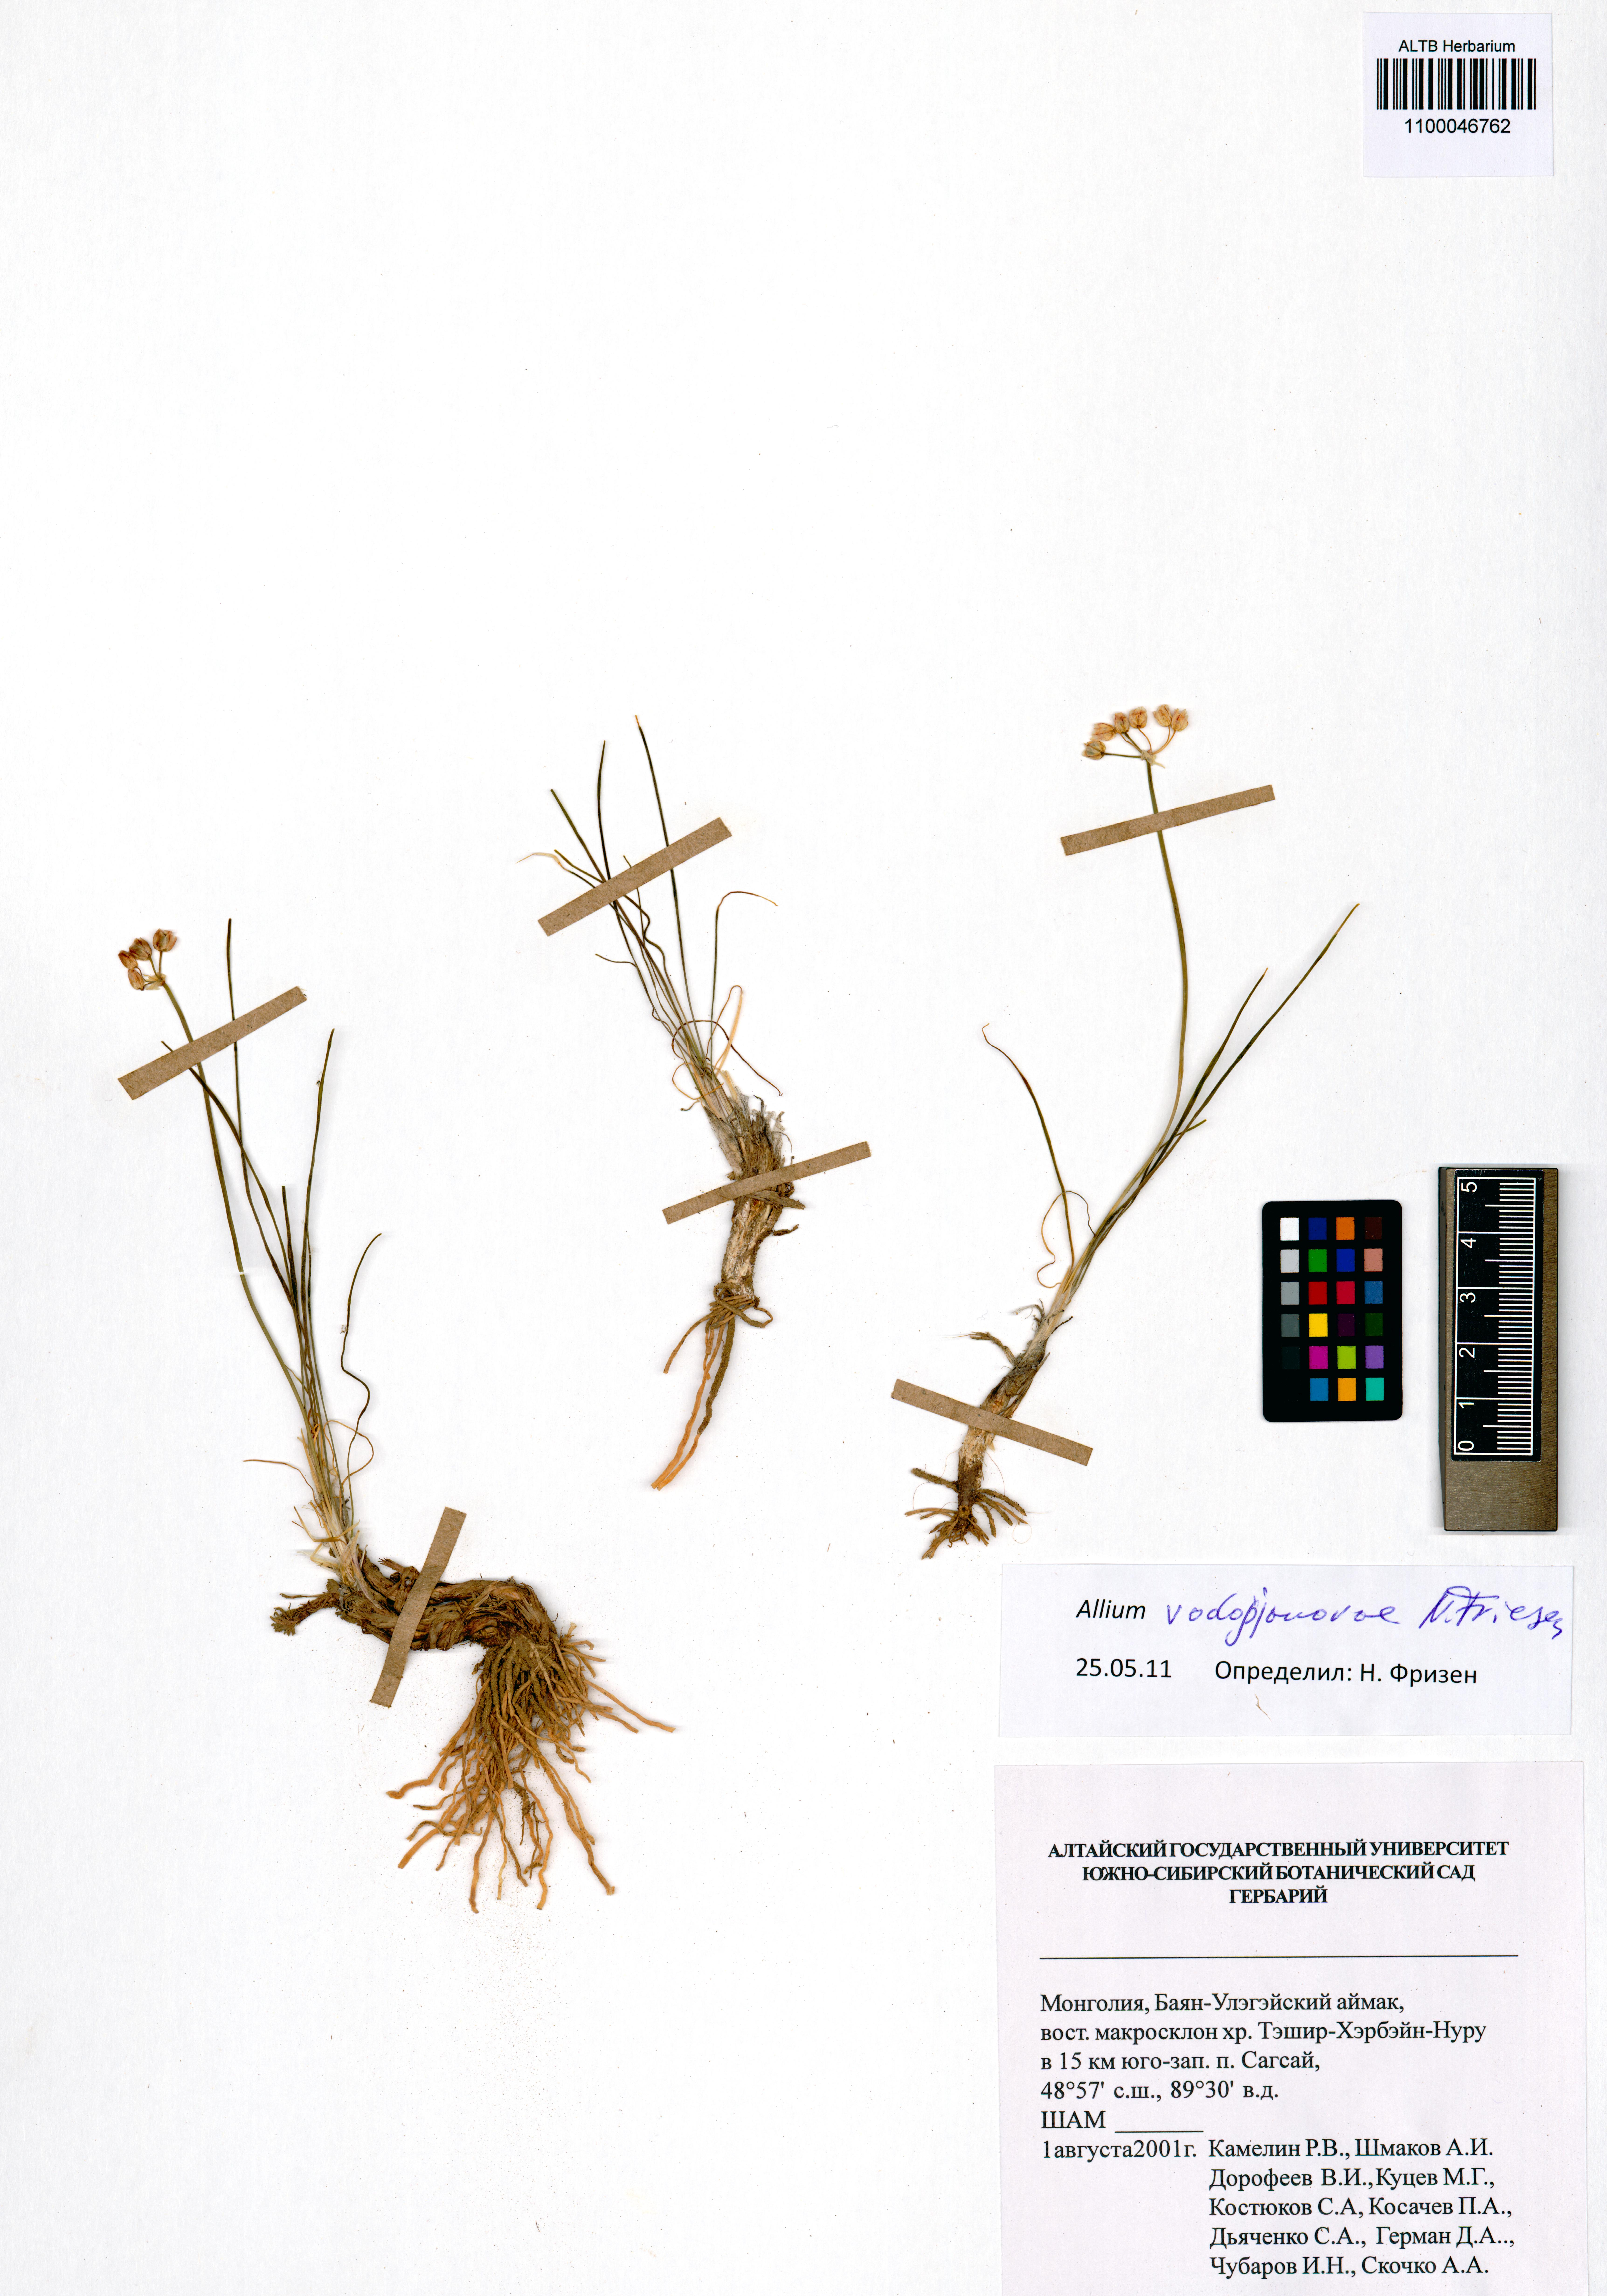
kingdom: Plantae
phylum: Tracheophyta
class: Liliopsida
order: Asparagales
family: Amaryllidaceae
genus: Allium
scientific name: Allium vodopjanovae
